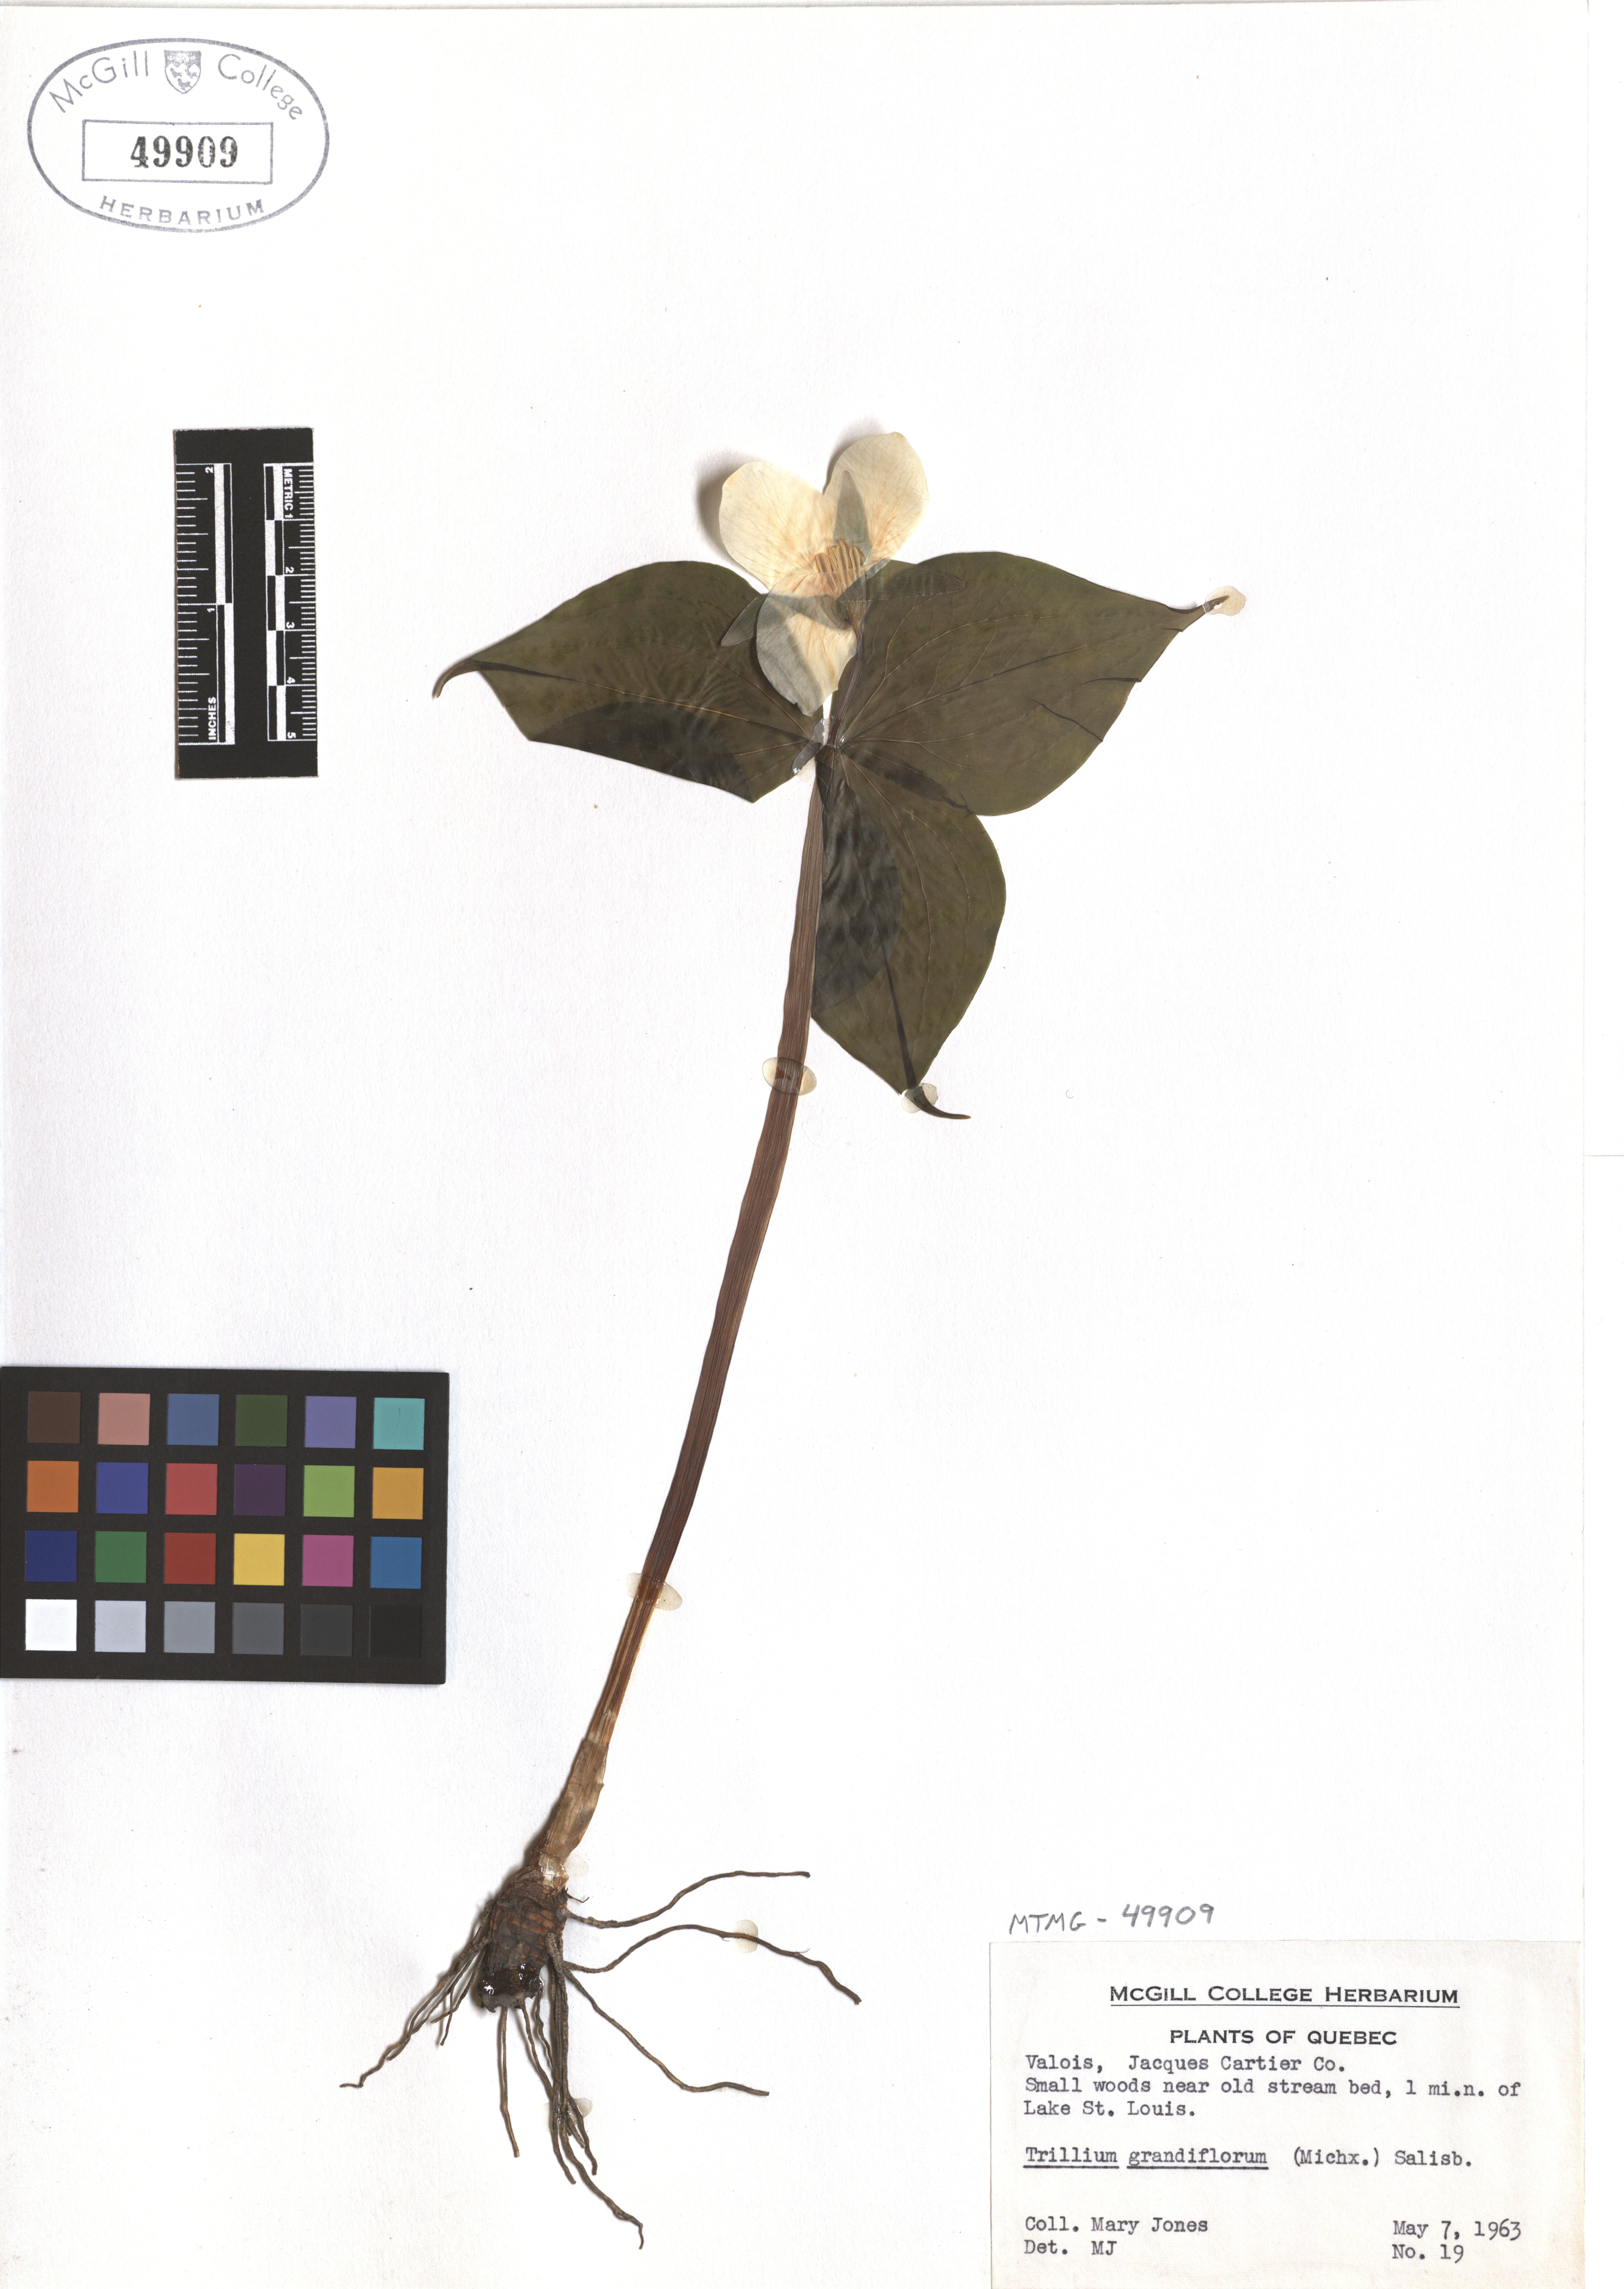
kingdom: Plantae
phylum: Tracheophyta
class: Liliopsida
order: Liliales
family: Melanthiaceae
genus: Trillium
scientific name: Trillium grandiflorum
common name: Great white trillium
